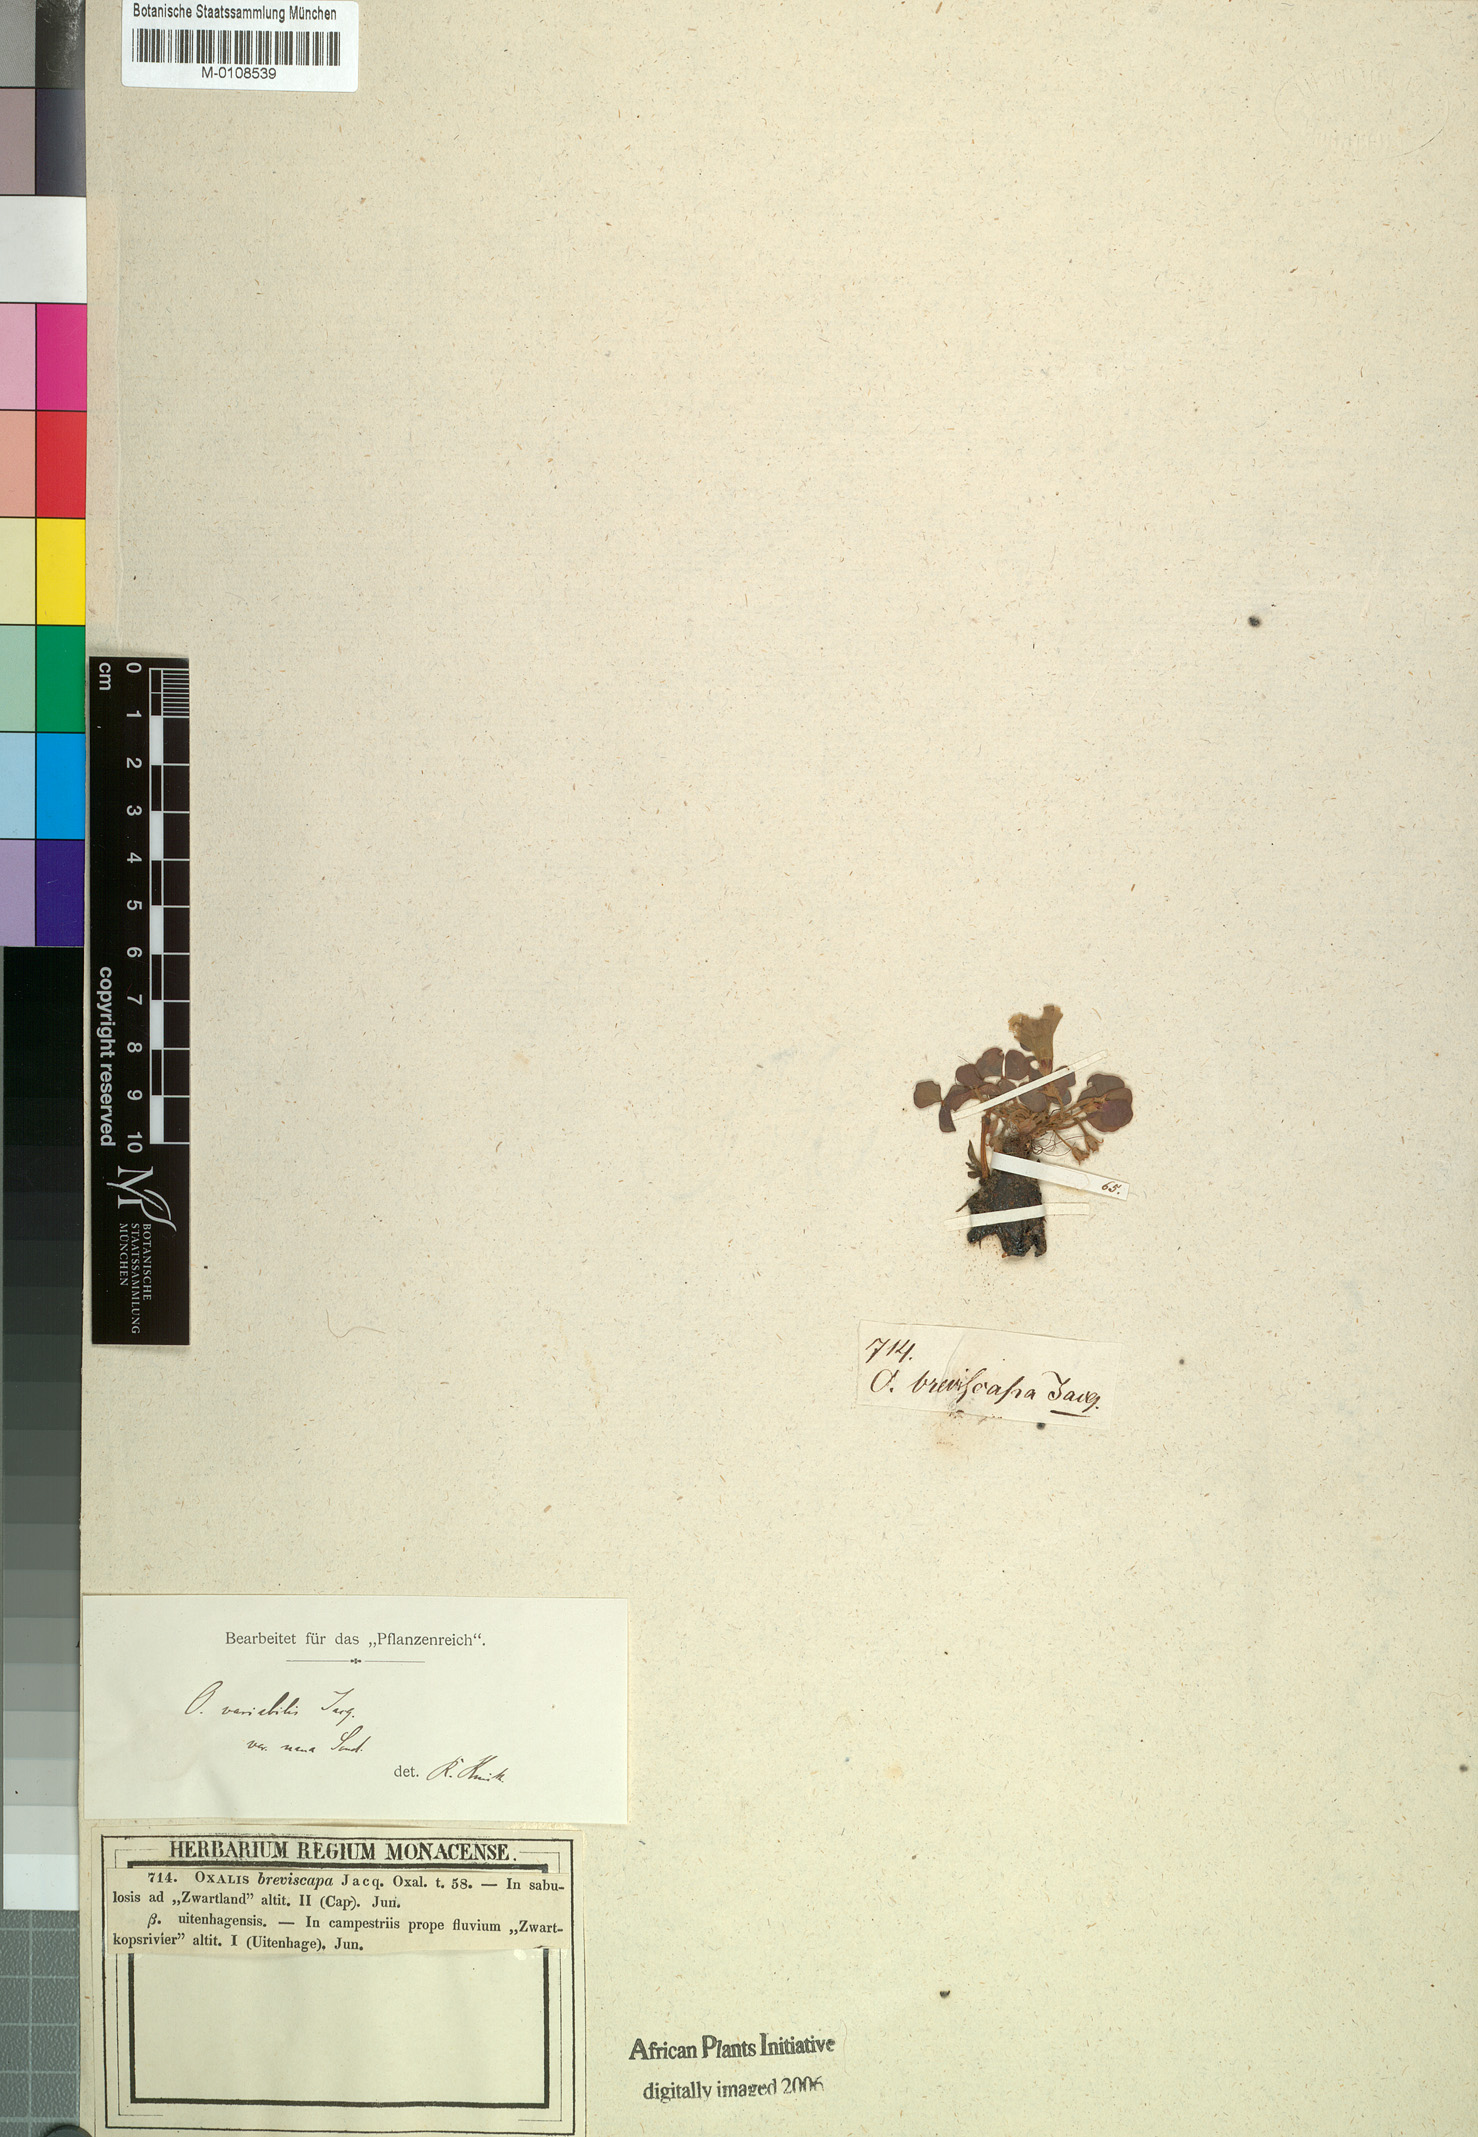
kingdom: Plantae
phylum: Tracheophyta
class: Magnoliopsida
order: Oxalidales
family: Oxalidaceae
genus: Oxalis
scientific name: Oxalis purpurea
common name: Purple woodsorrel
